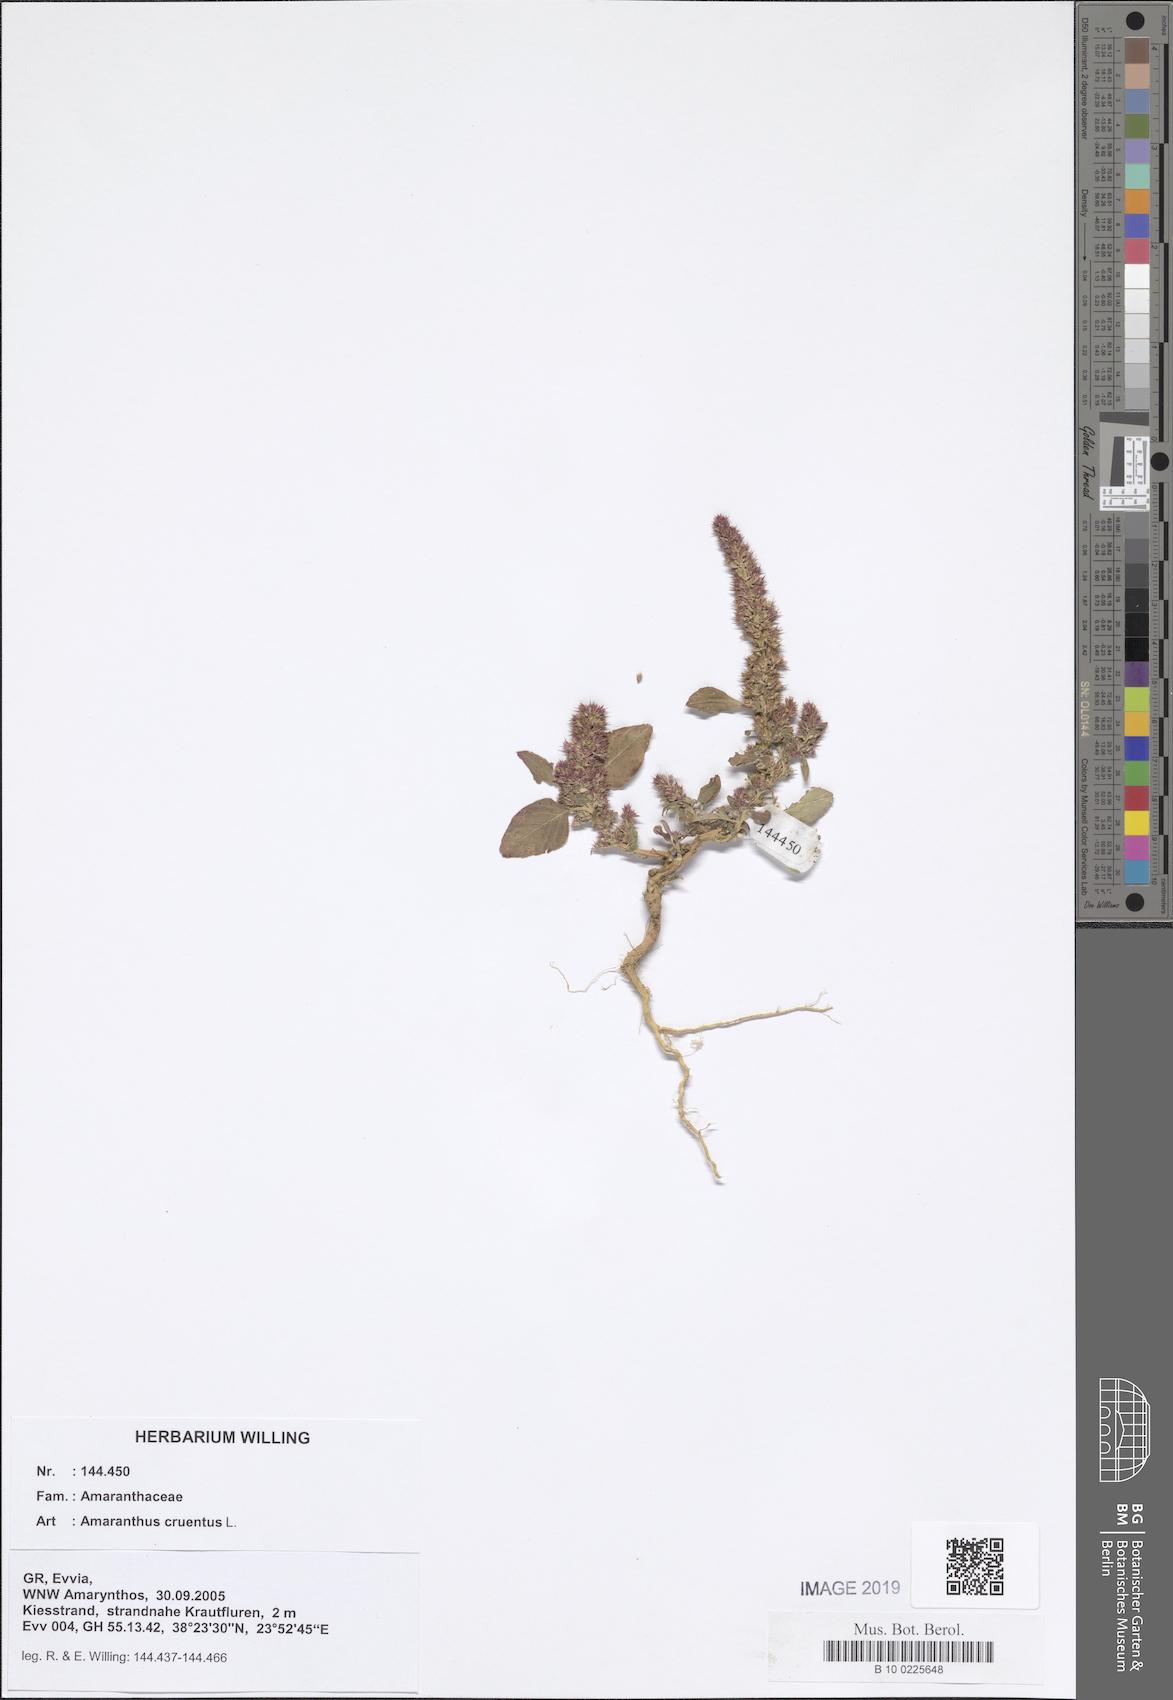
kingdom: Plantae
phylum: Tracheophyta
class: Magnoliopsida
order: Caryophyllales
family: Amaranthaceae
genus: Amaranthus
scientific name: Amaranthus cruentus
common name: Purple amaranth
